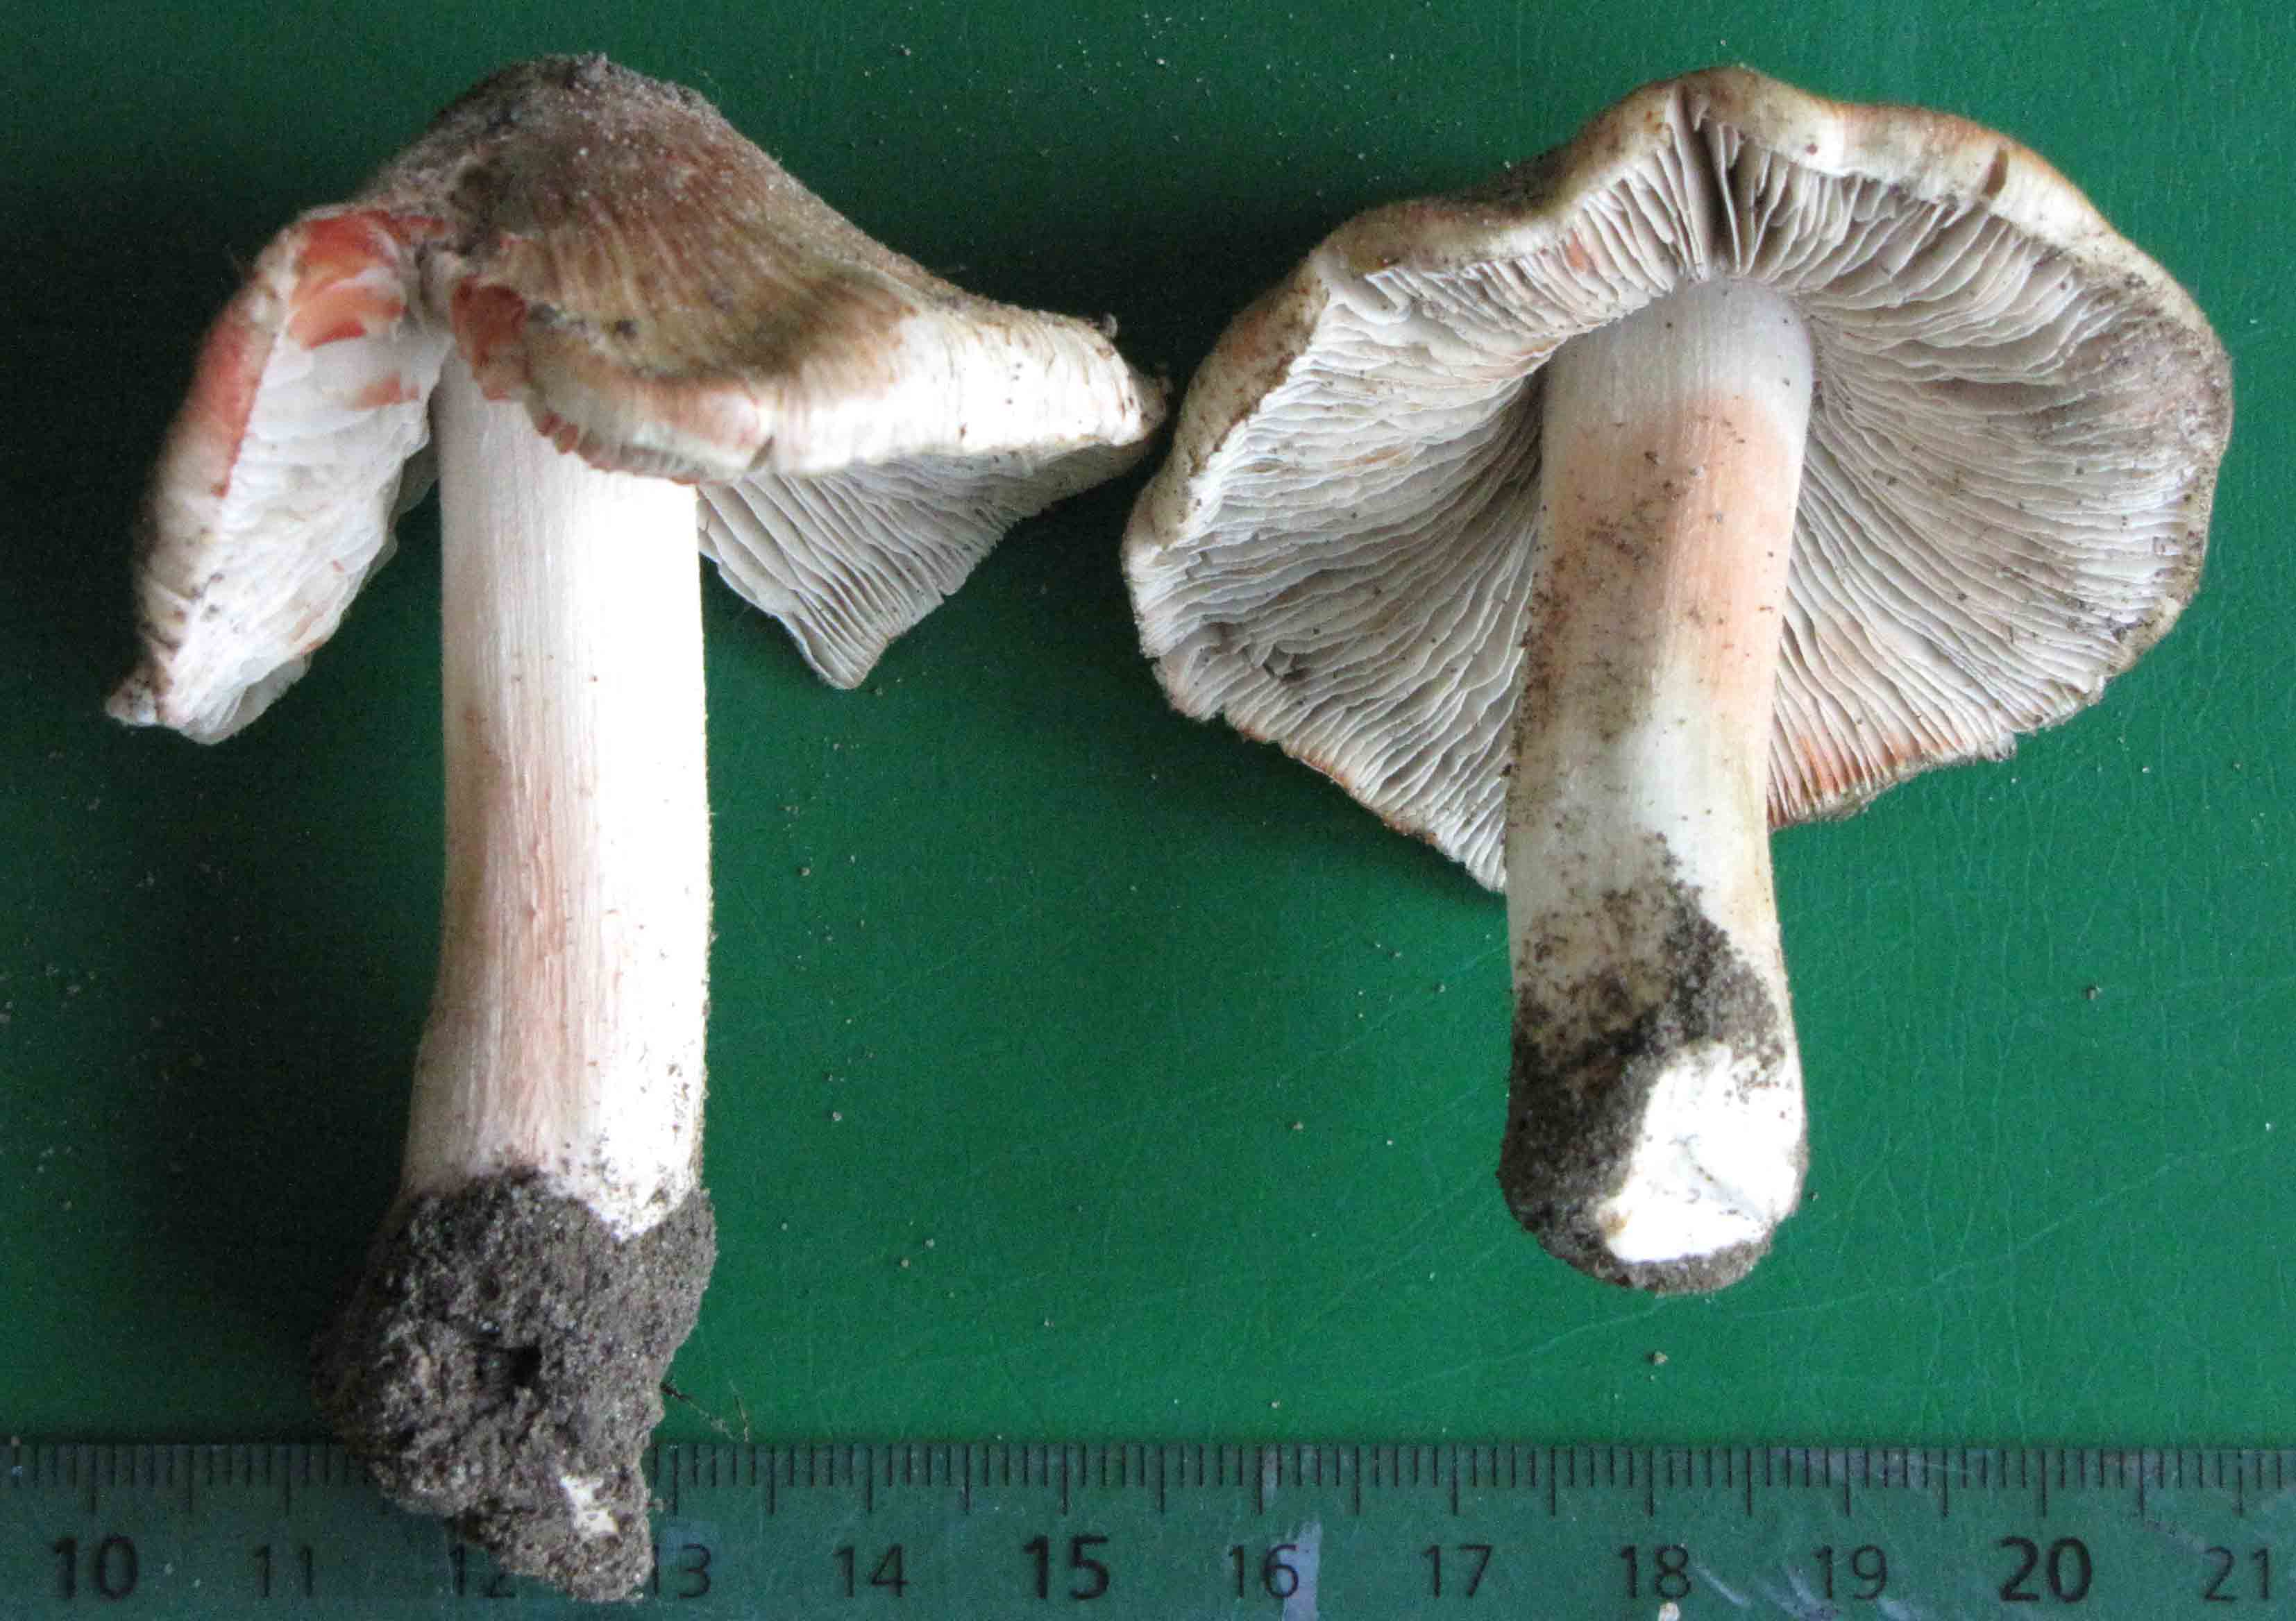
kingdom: Fungi
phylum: Basidiomycota
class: Agaricomycetes
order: Agaricales
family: Inocybaceae
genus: Inosperma
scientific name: Inosperma erubescens
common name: giftig trævlhat
